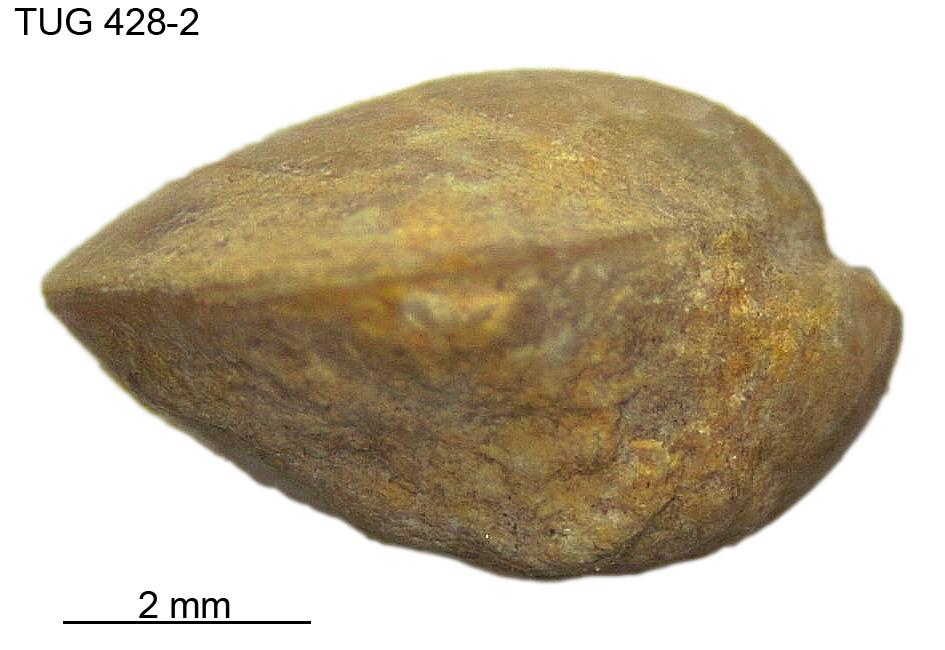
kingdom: Animalia
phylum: Brachiopoda
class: Rhynchonellata
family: Carinatinidae
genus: Spirigerina
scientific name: Spirigerina
